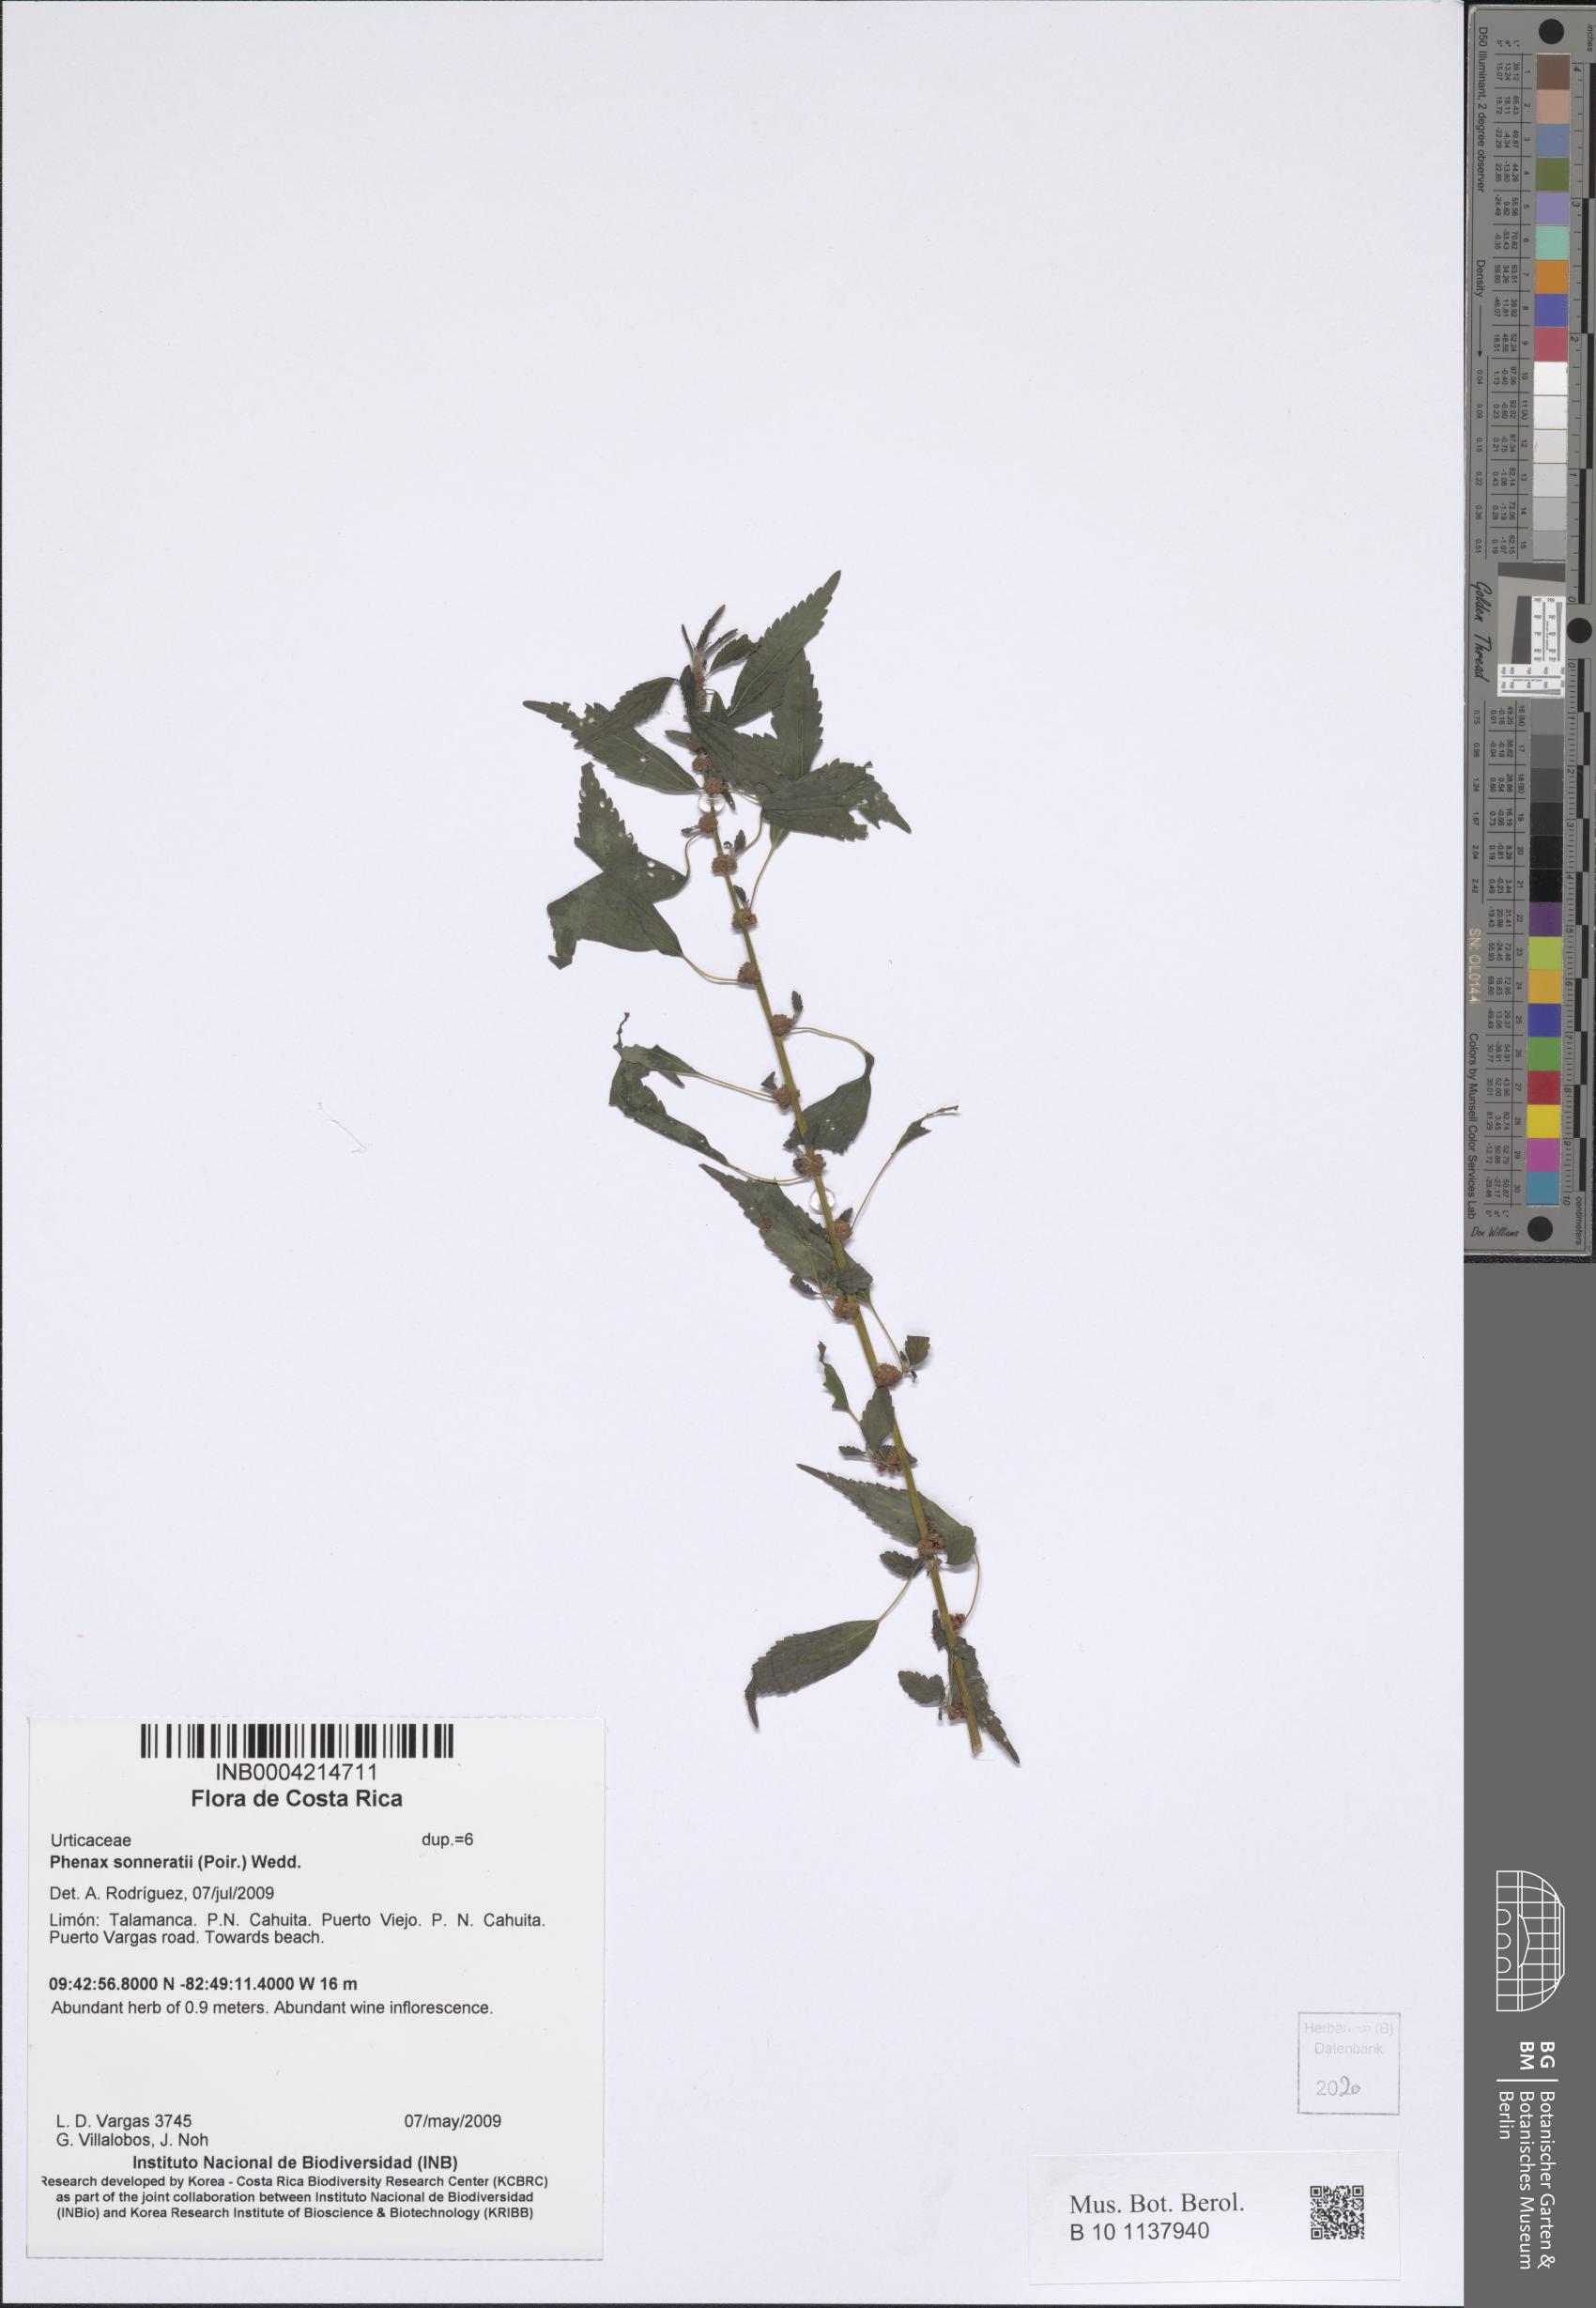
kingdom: Plantae
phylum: Tracheophyta
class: Magnoliopsida
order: Rosales
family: Urticaceae
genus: Phenax
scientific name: Phenax sonneratii
